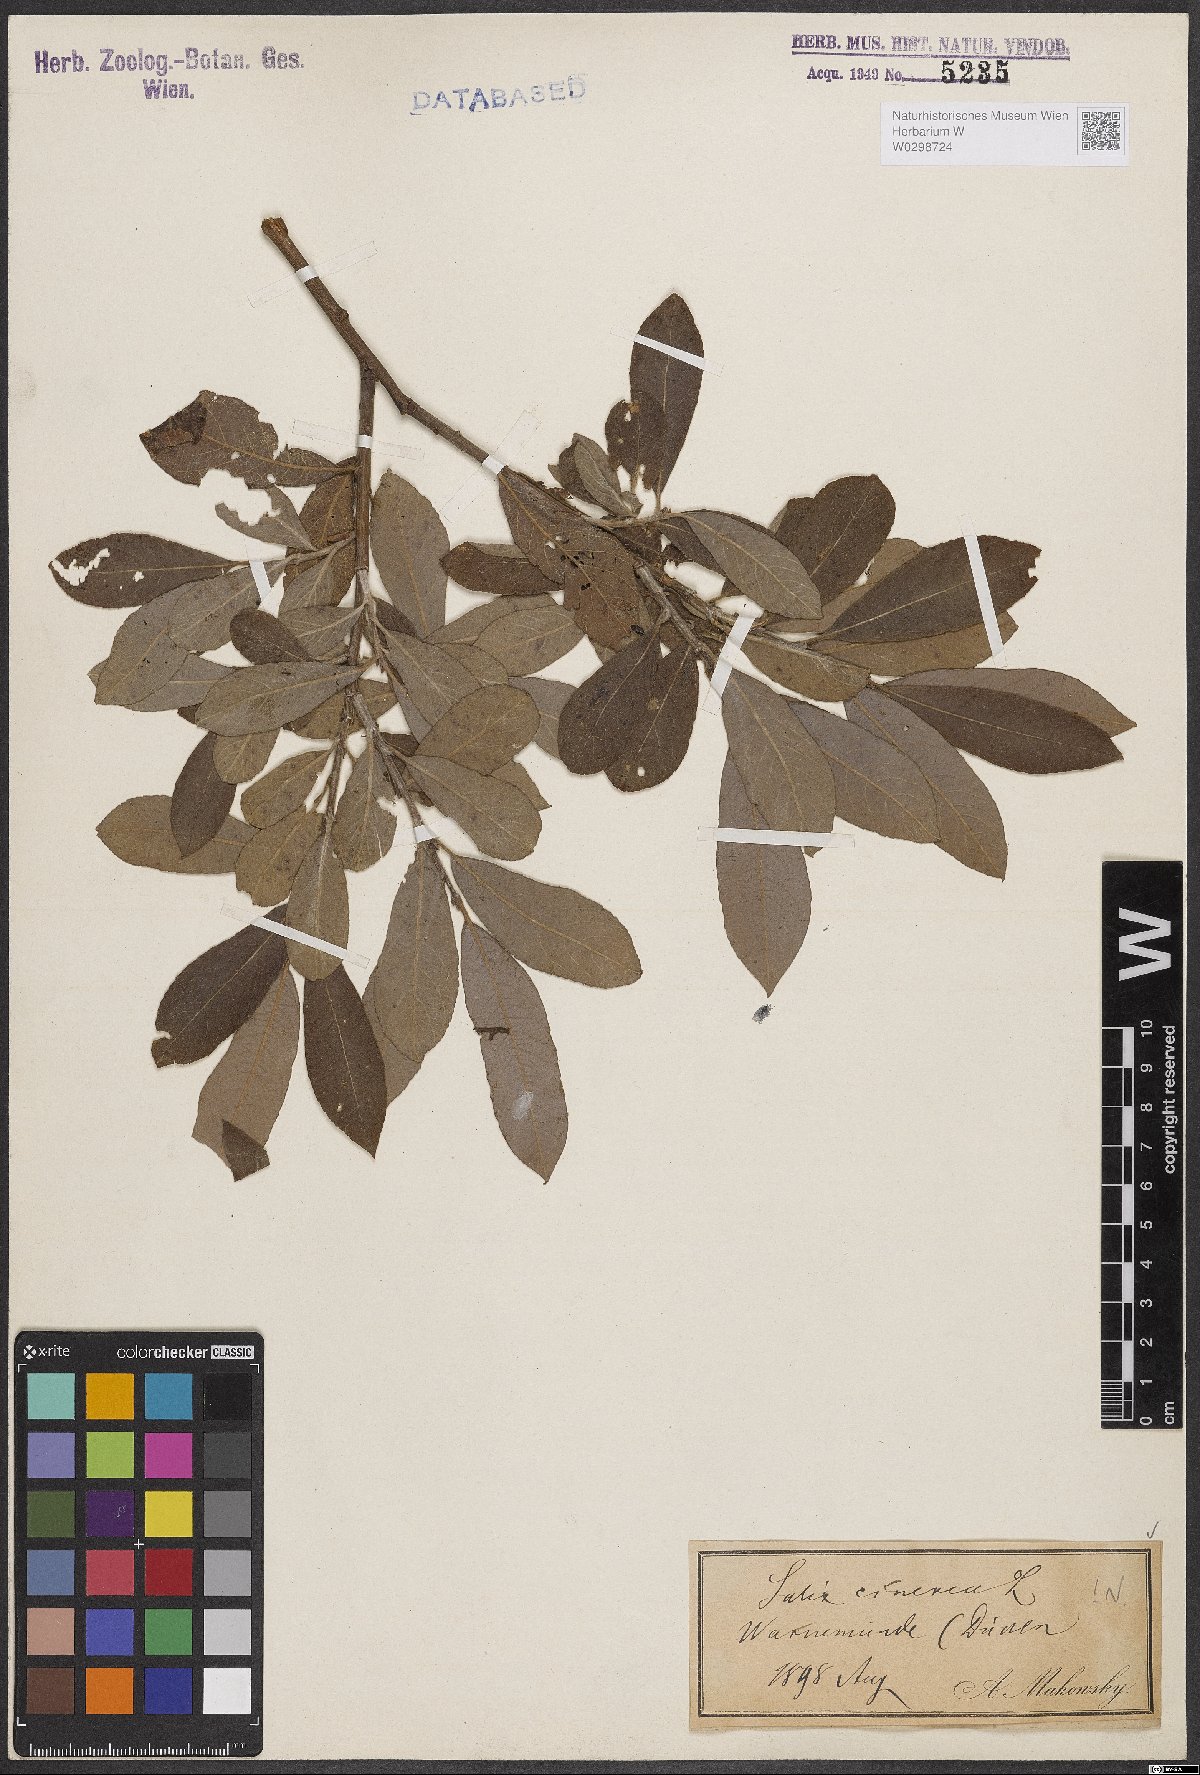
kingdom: Plantae
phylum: Tracheophyta
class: Magnoliopsida
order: Malpighiales
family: Salicaceae
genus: Salix
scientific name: Salix cinerea
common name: Common sallow
